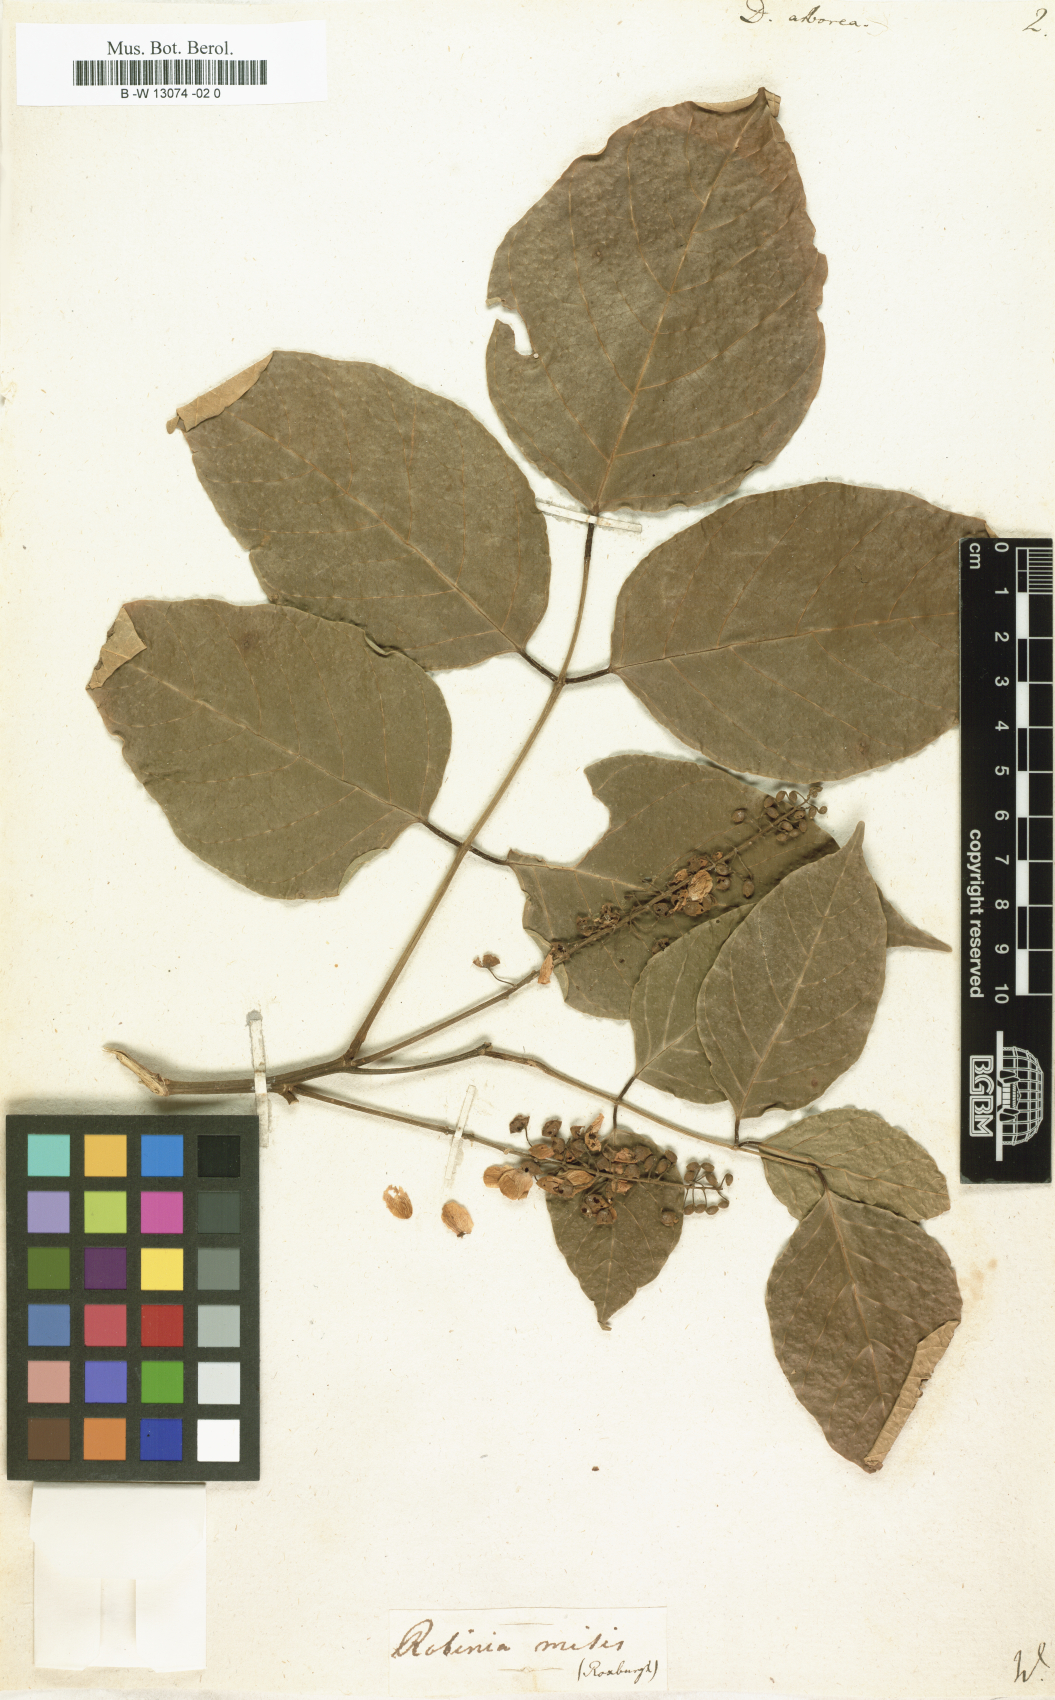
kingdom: Plantae
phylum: Tracheophyta
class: Magnoliopsida
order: Fabales
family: Fabaceae
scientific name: Fabaceae
